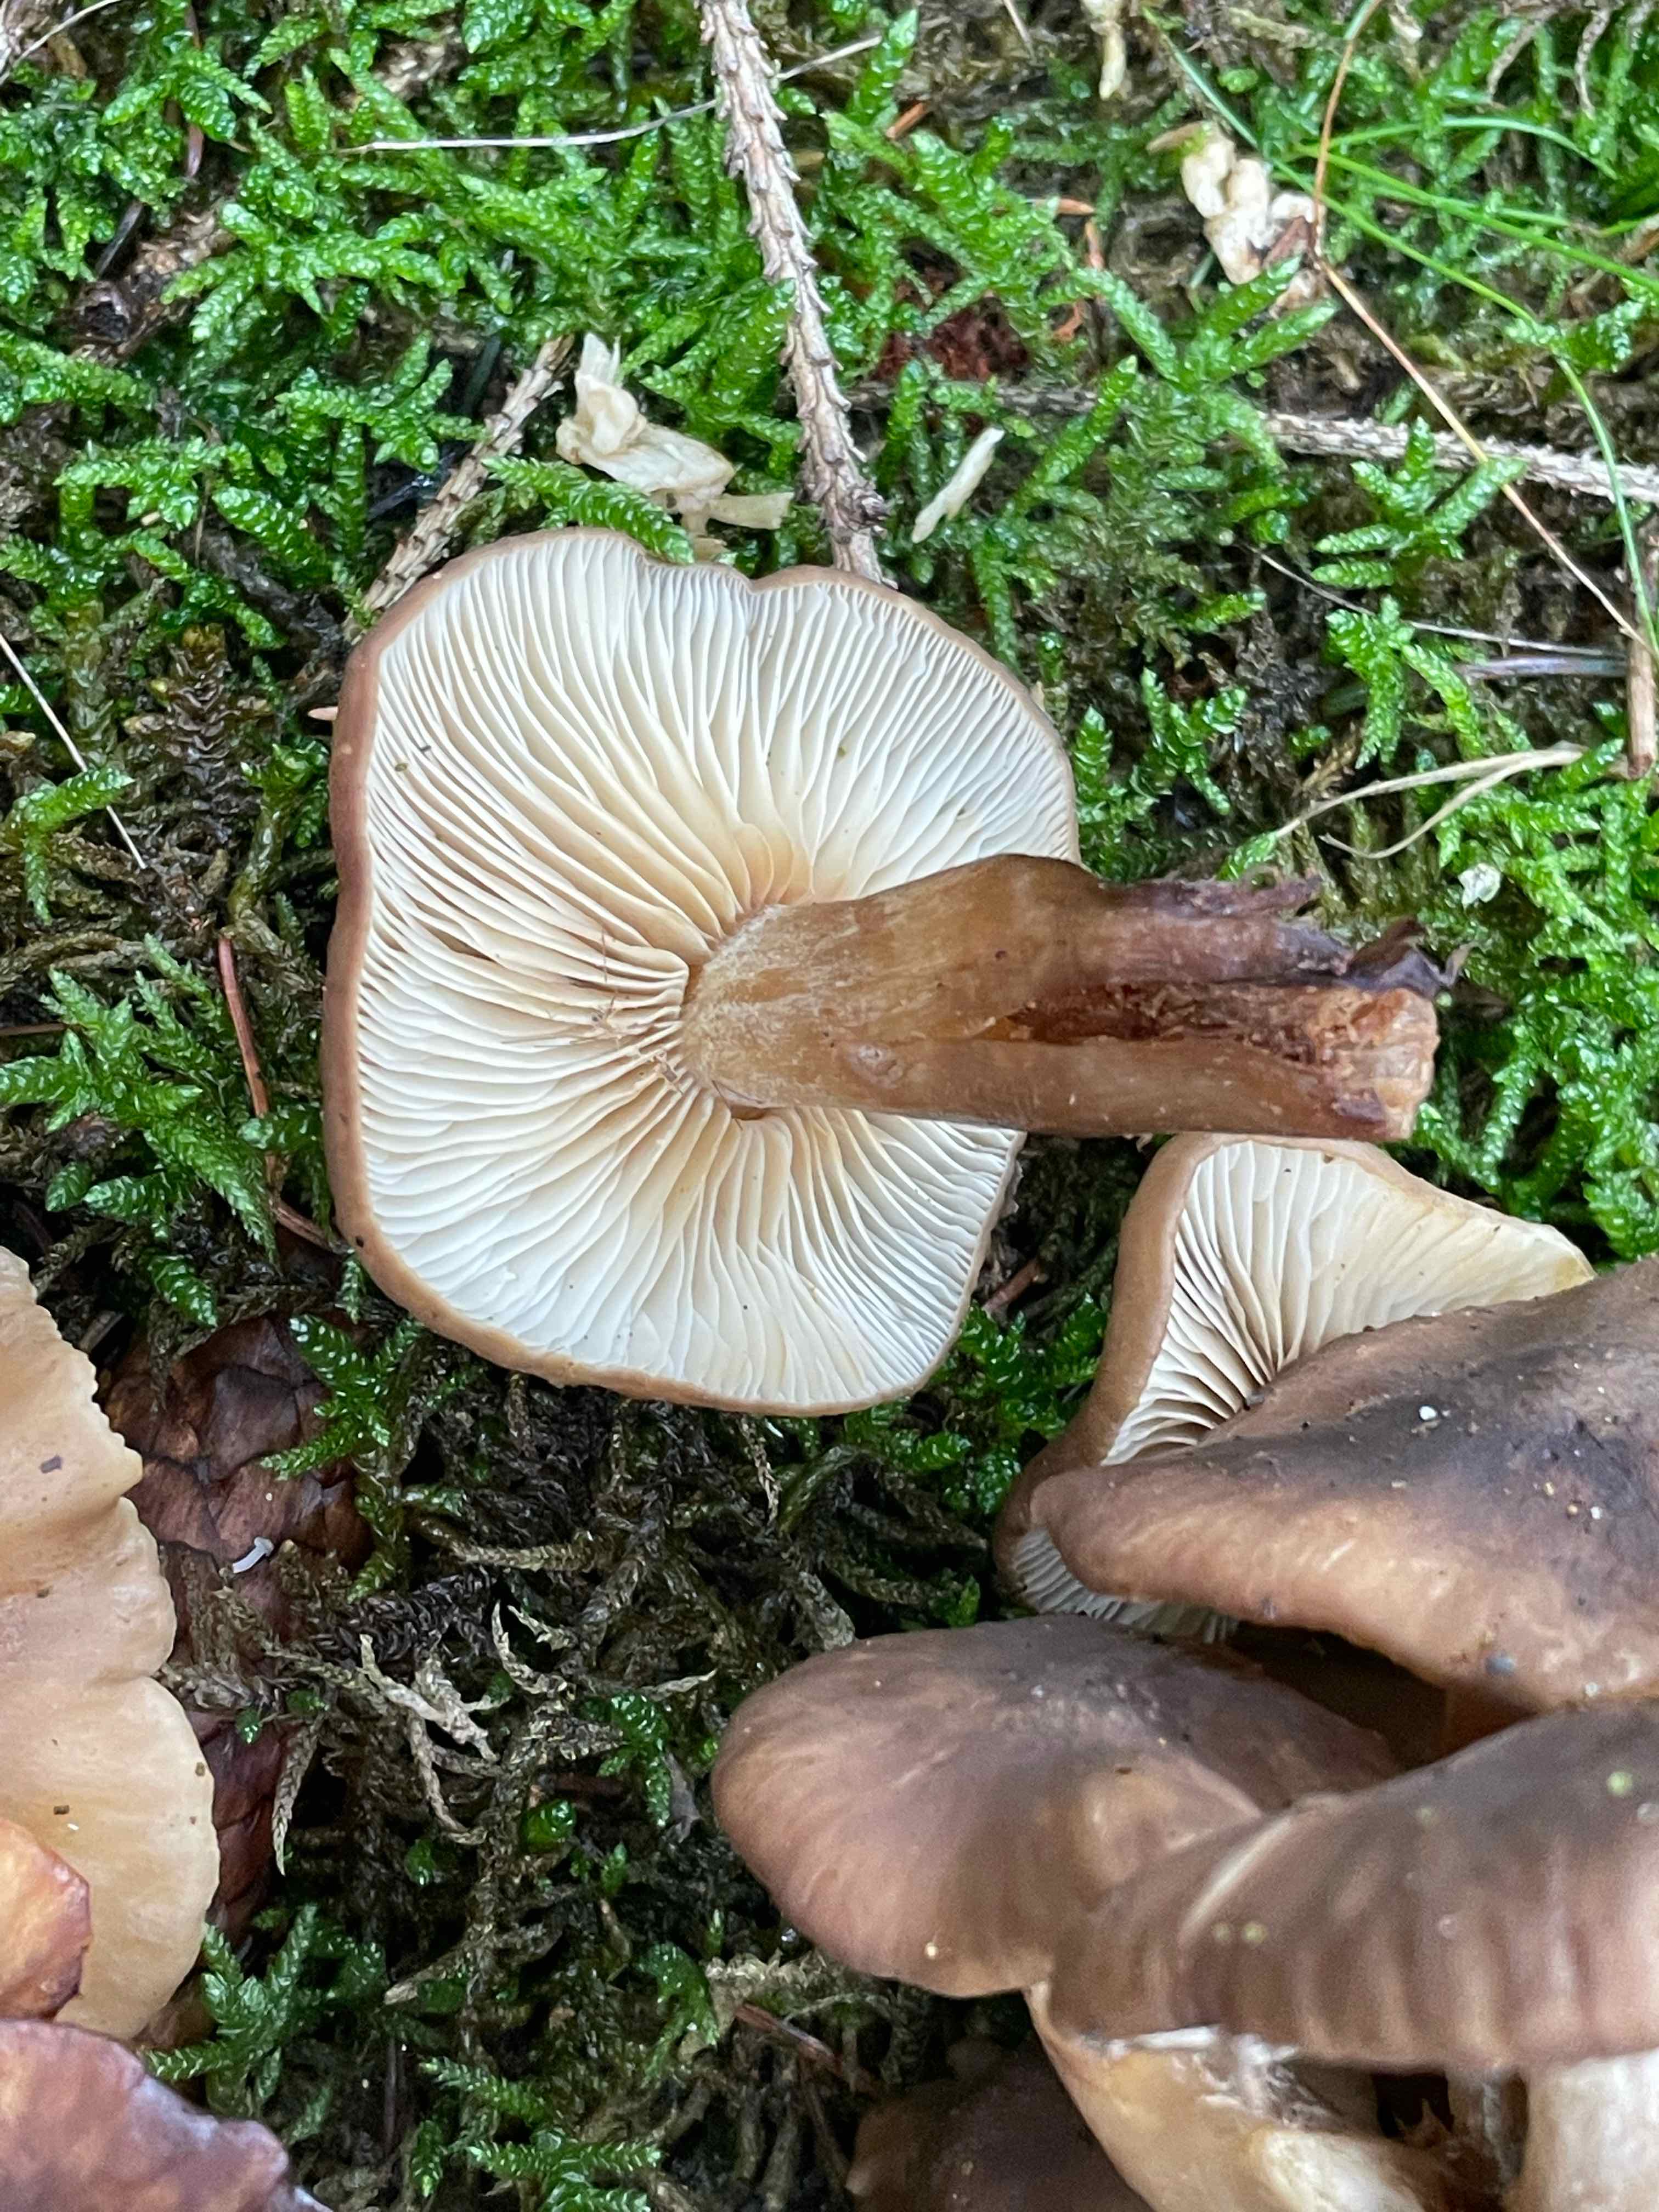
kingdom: Fungi
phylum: Basidiomycota
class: Agaricomycetes
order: Agaricales
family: Lyophyllaceae
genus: Lyophyllum
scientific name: Lyophyllum
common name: gråblad
